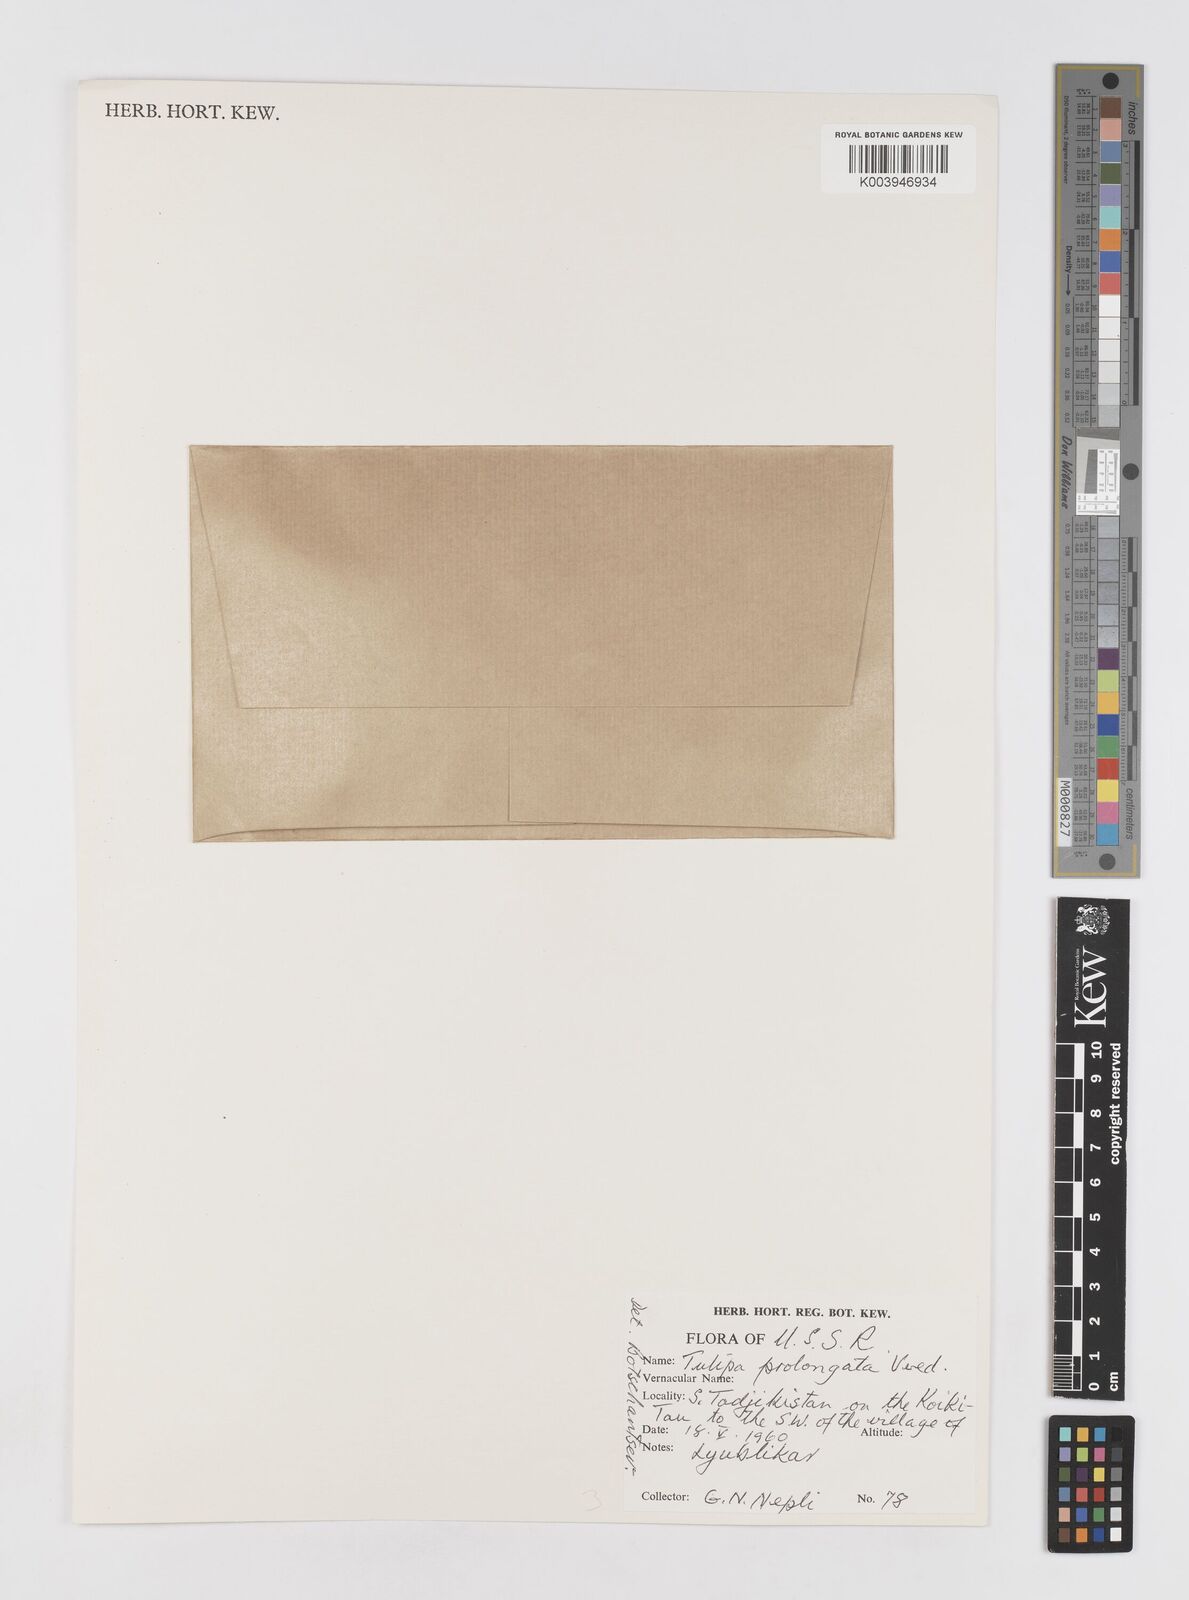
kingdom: Plantae
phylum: Tracheophyta
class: Liliopsida
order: Liliales
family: Liliaceae
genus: Tulipa
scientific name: Tulipa biflora
